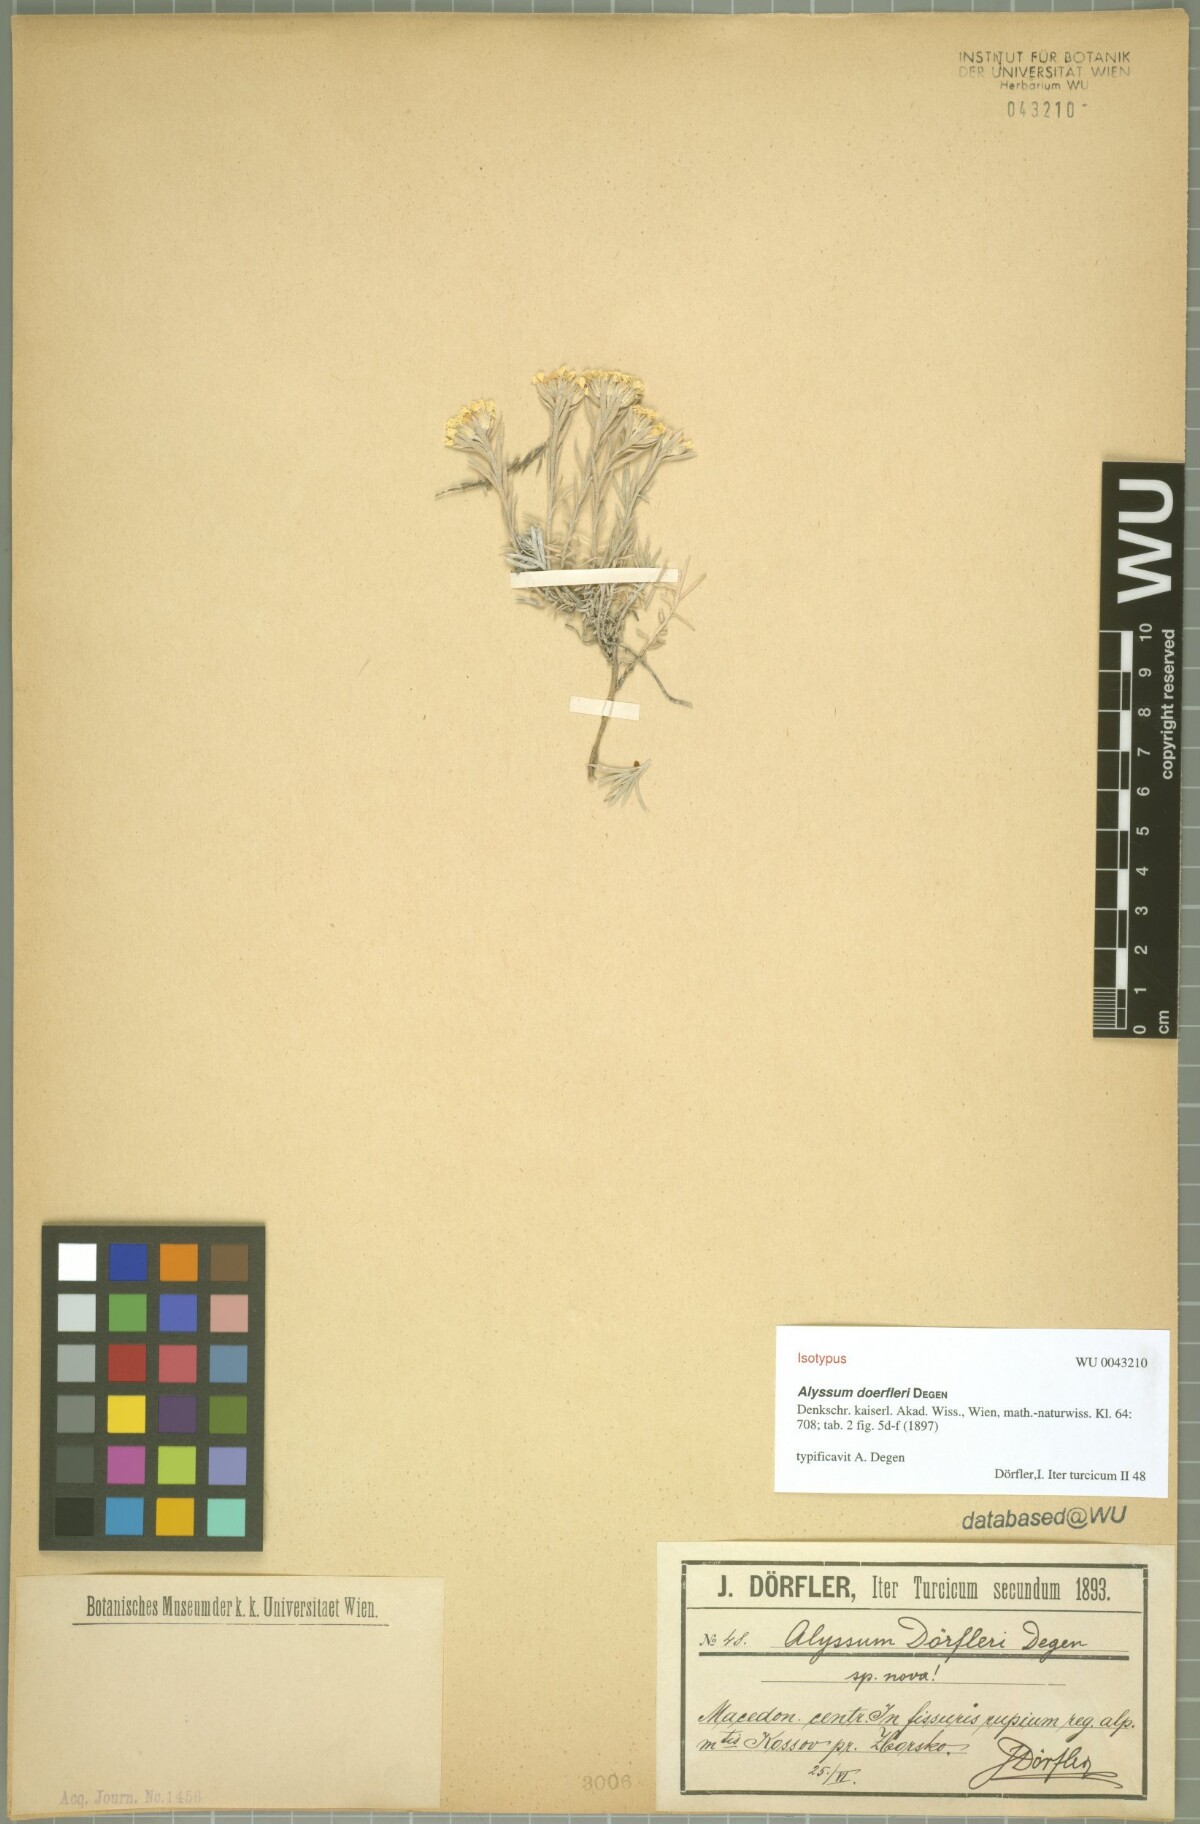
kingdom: Plantae
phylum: Tracheophyta
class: Magnoliopsida
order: Brassicales
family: Brassicaceae
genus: Alyssum
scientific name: Alyssum doerfleri
